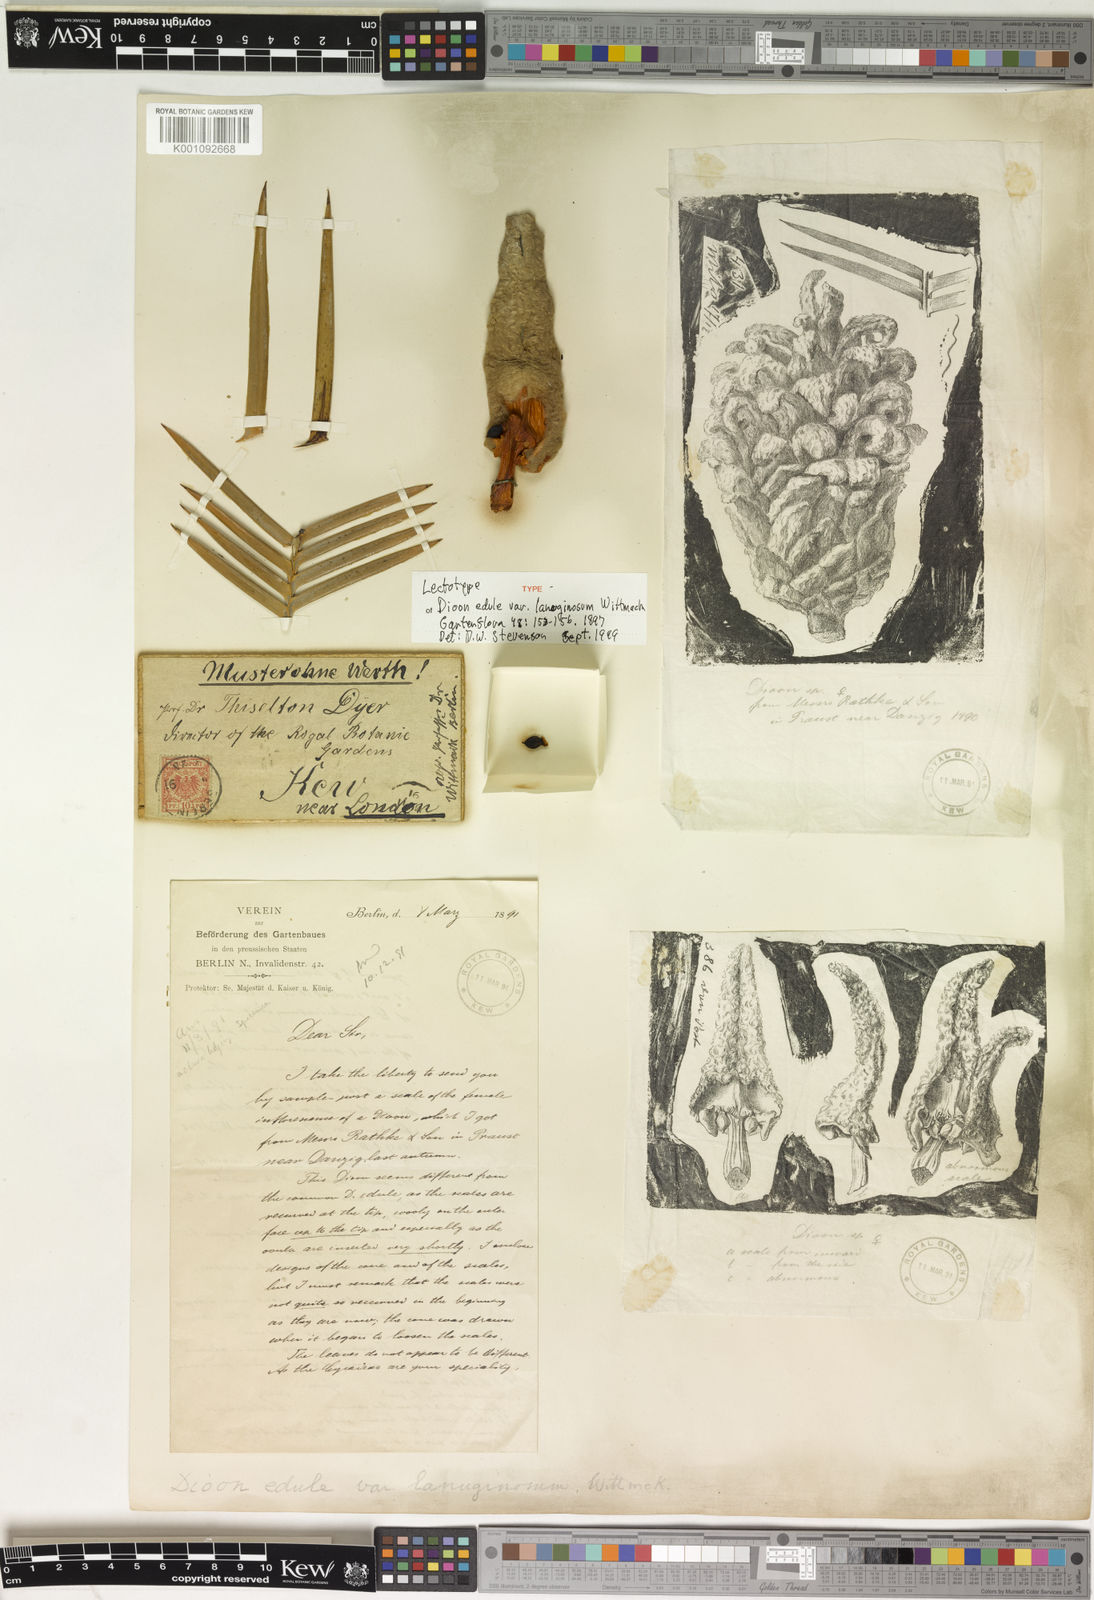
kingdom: Plantae
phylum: Tracheophyta
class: Cycadopsida
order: Cycadales
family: Zamiaceae
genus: Dioon
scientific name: Dioon edule
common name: Edible-seed cycas
